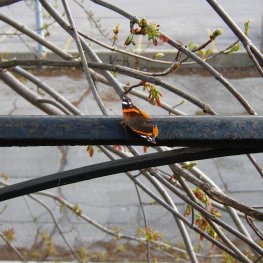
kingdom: Animalia
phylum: Arthropoda
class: Insecta
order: Lepidoptera
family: Nymphalidae
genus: Vanessa
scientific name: Vanessa atalanta
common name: Red Admiral
